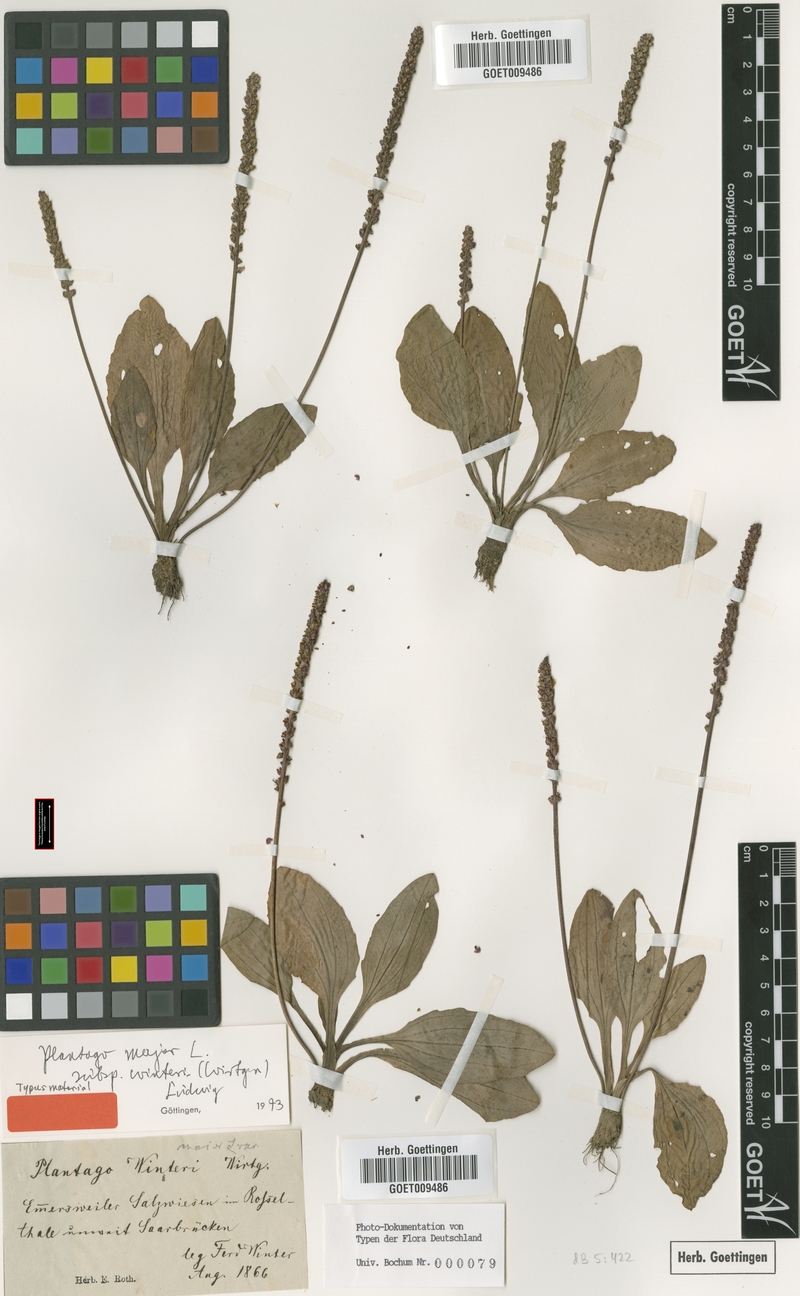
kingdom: Plantae
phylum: Tracheophyta
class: Magnoliopsida
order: Lamiales
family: Plantaginaceae
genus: Plantago
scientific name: Plantago uliginosa
